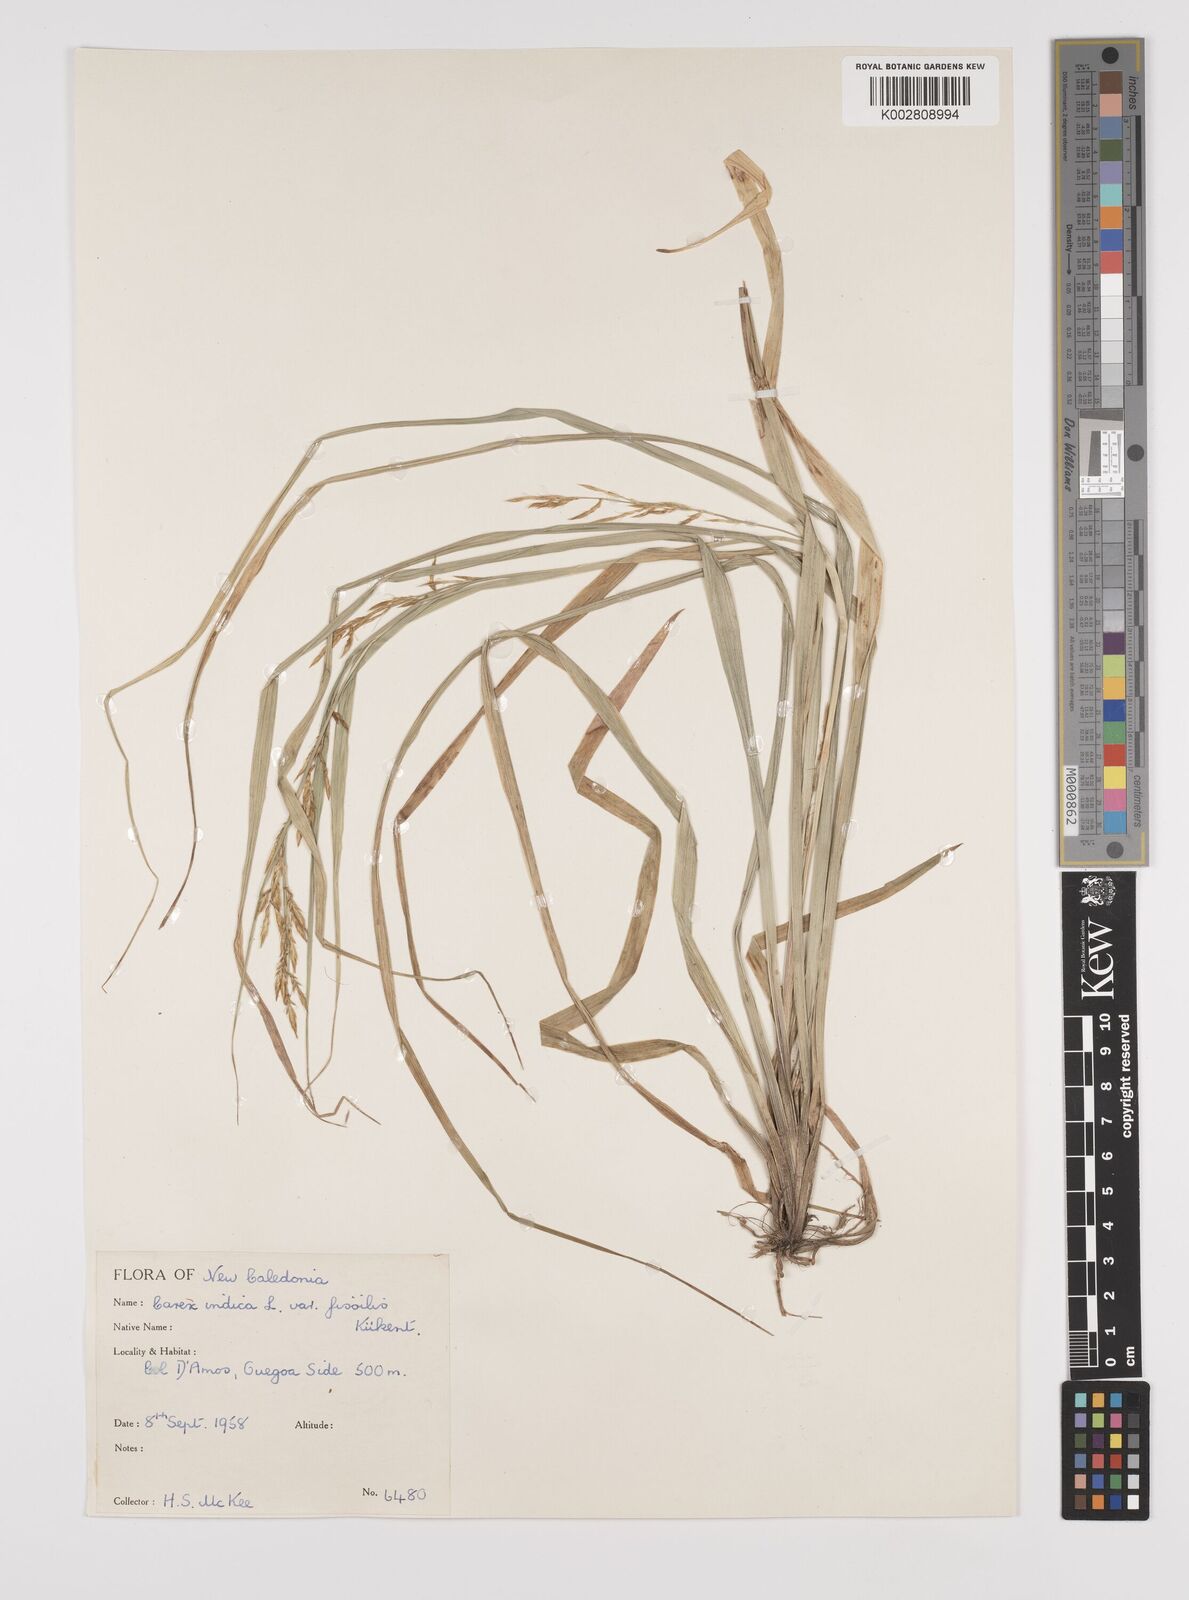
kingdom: Plantae
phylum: Tracheophyta
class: Liliopsida
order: Poales
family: Cyperaceae
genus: Carex
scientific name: Carex indica
